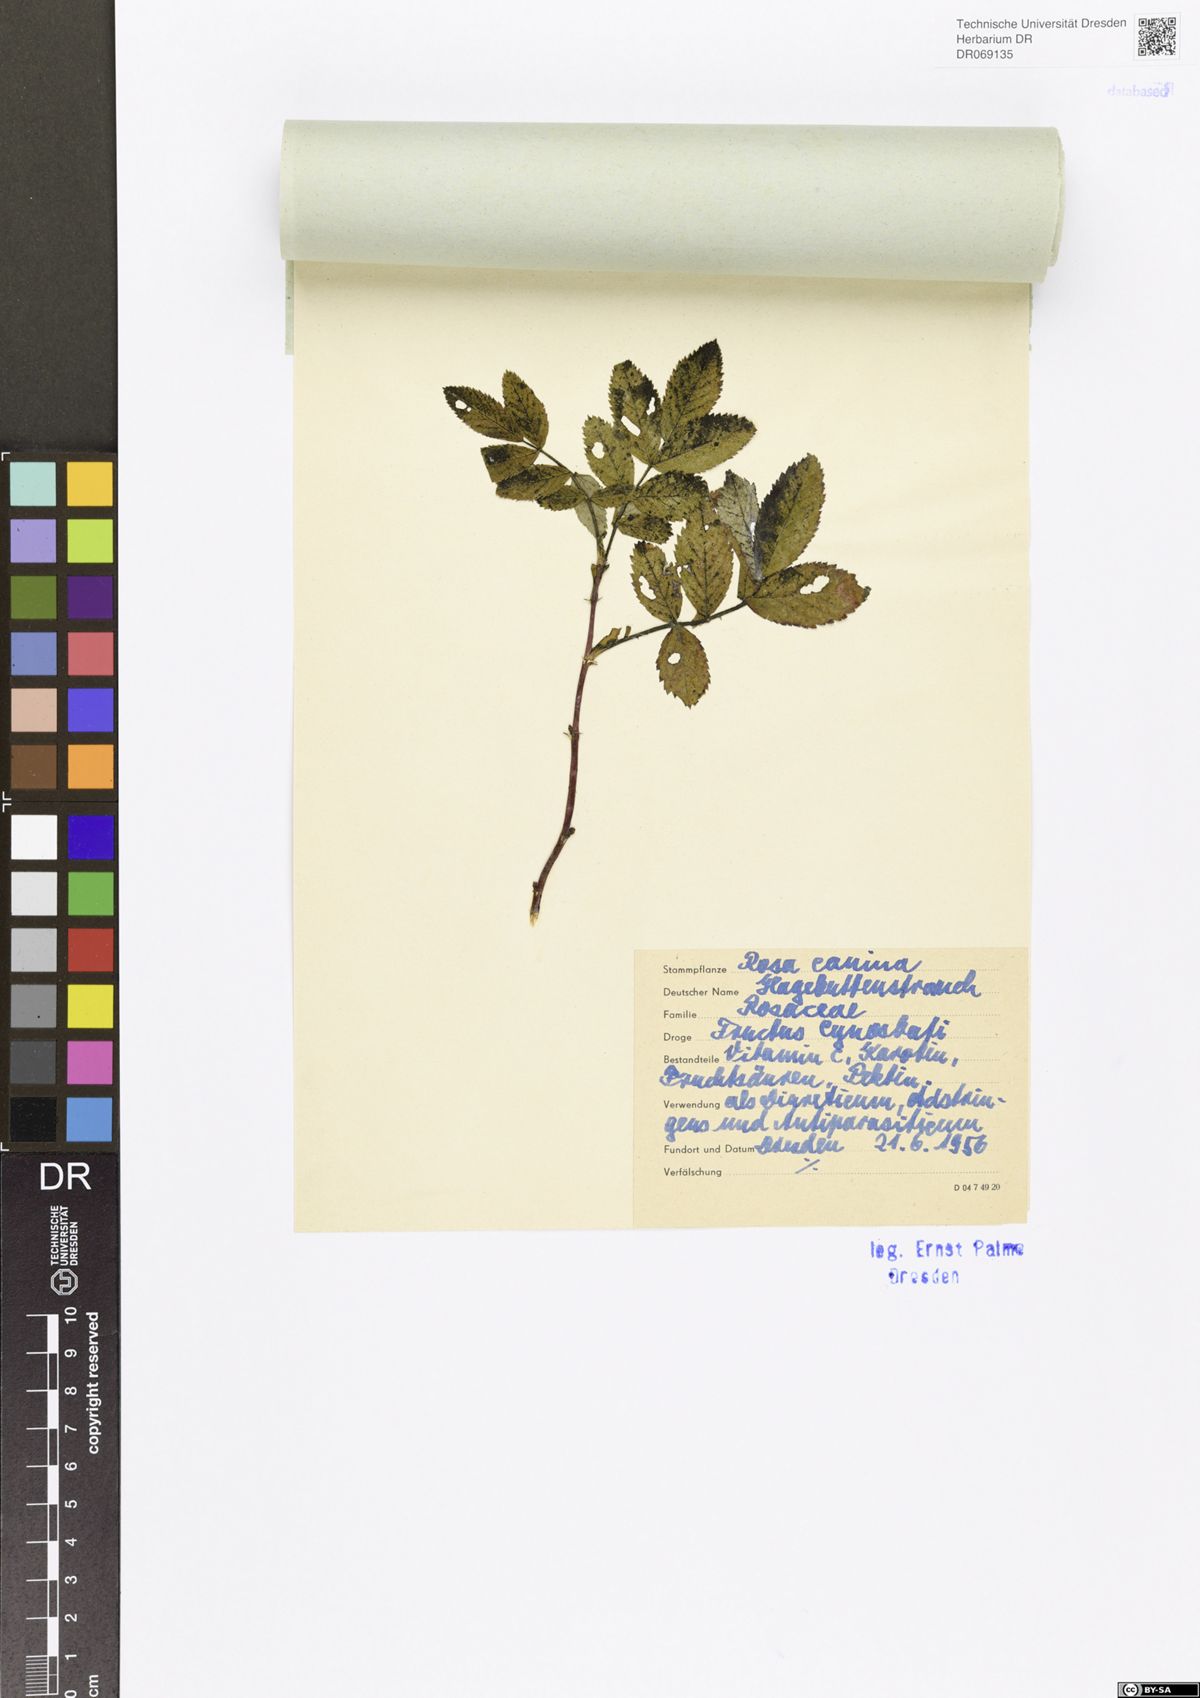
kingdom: Plantae
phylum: Tracheophyta
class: Magnoliopsida
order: Rosales
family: Rosaceae
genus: Rosa
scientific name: Rosa canina
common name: Dog rose
